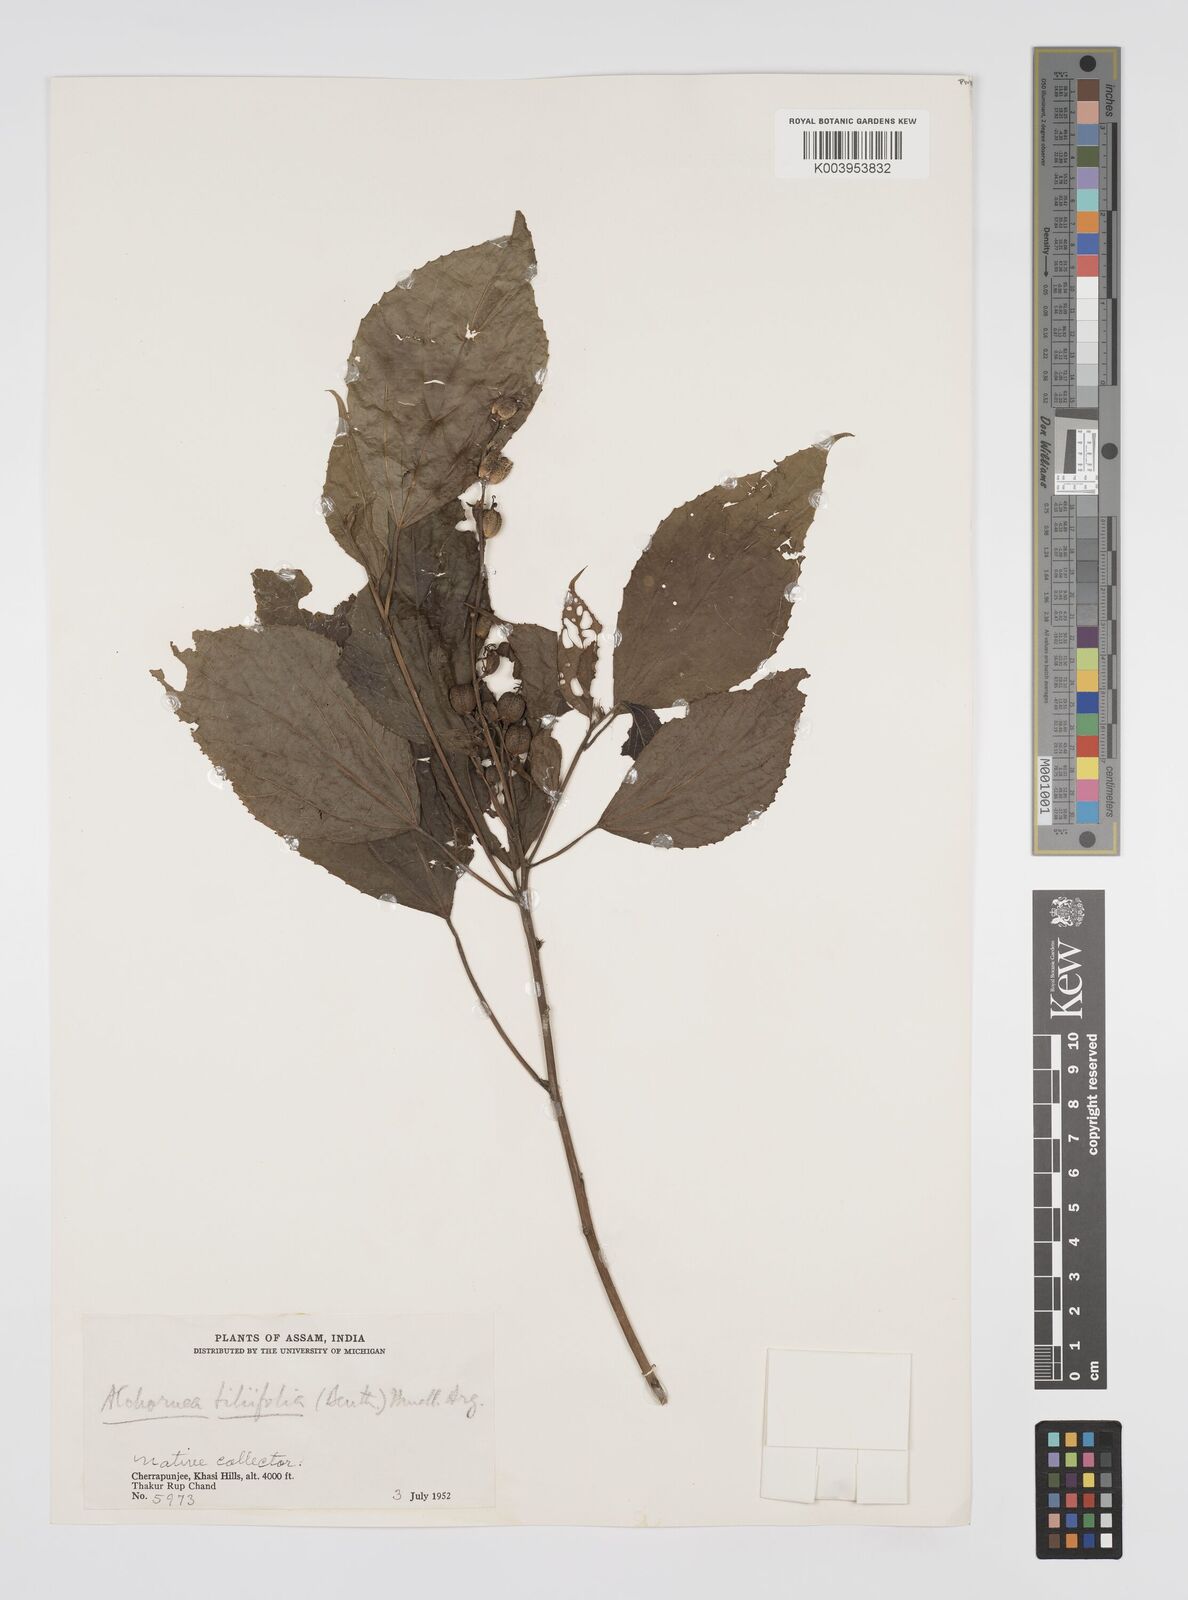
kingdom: Plantae
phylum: Tracheophyta
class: Magnoliopsida
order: Malpighiales
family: Euphorbiaceae
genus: Alchornea
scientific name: Alchornea tiliifolia
